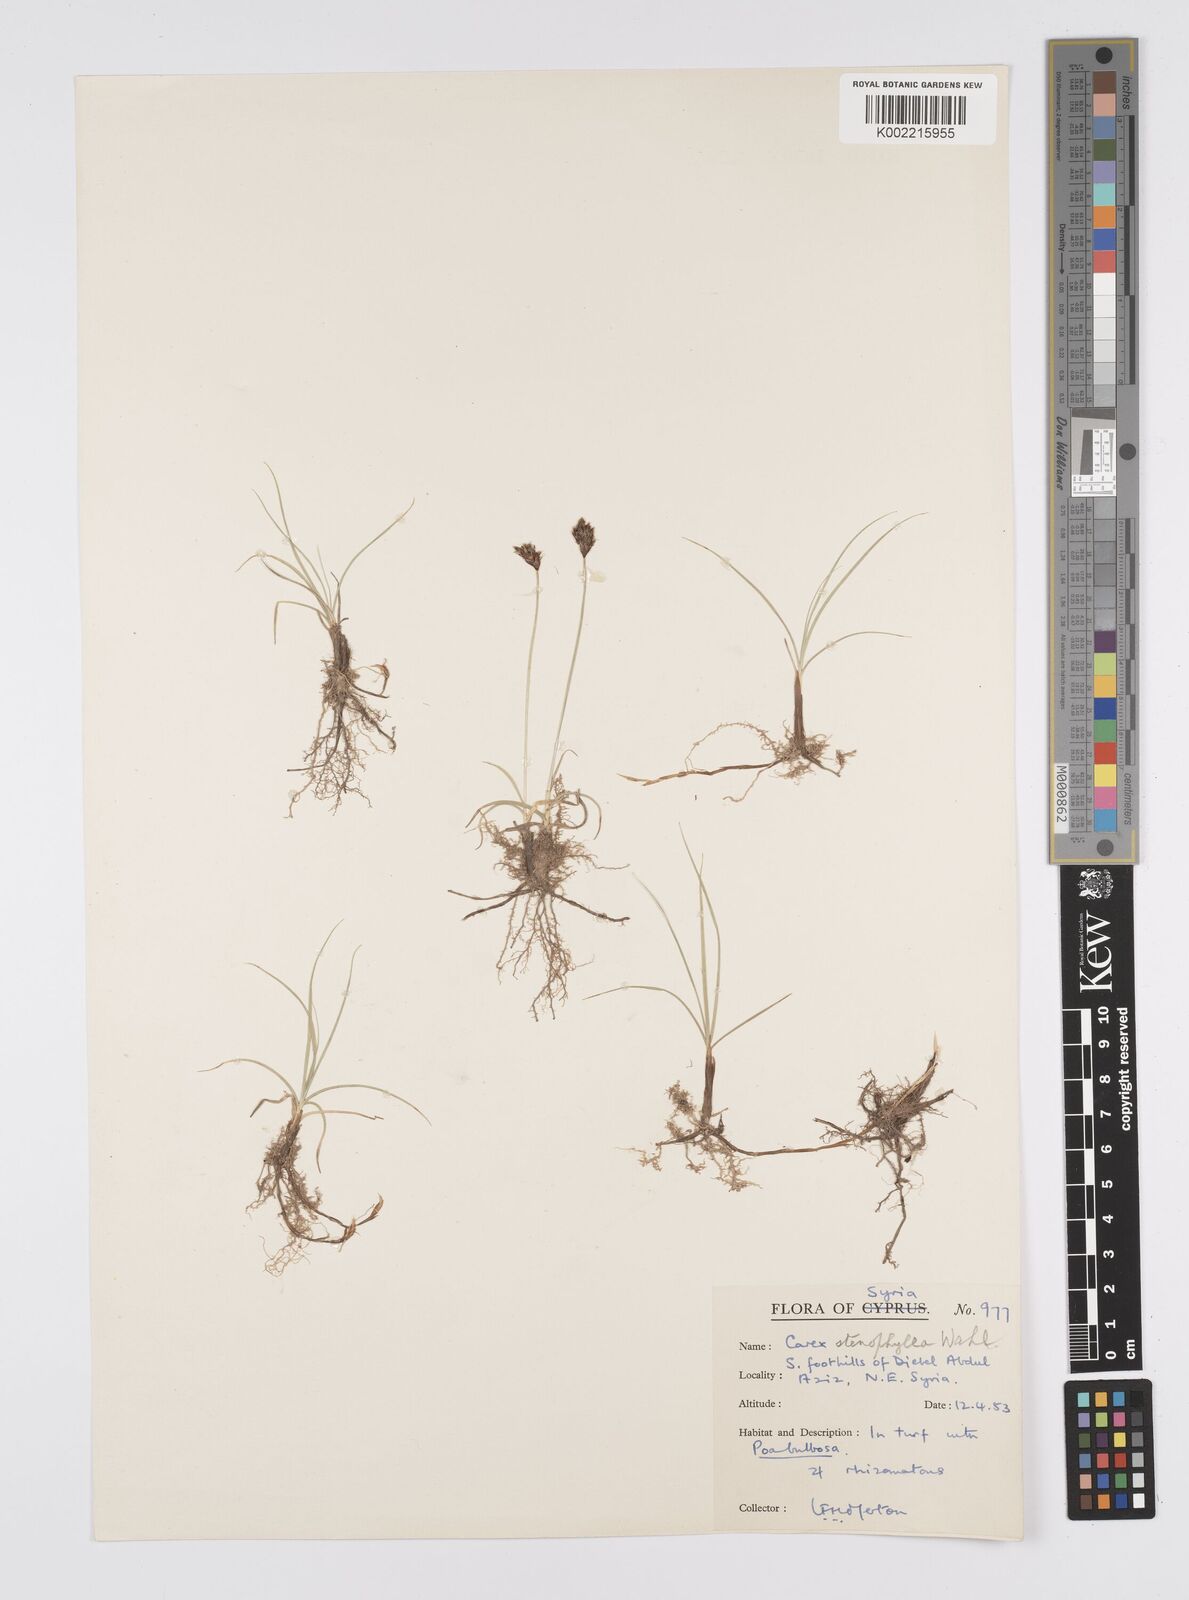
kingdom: Plantae
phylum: Tracheophyta
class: Liliopsida
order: Poales
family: Cyperaceae
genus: Carex
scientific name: Carex pachystylis
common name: Thick-stem sedge
